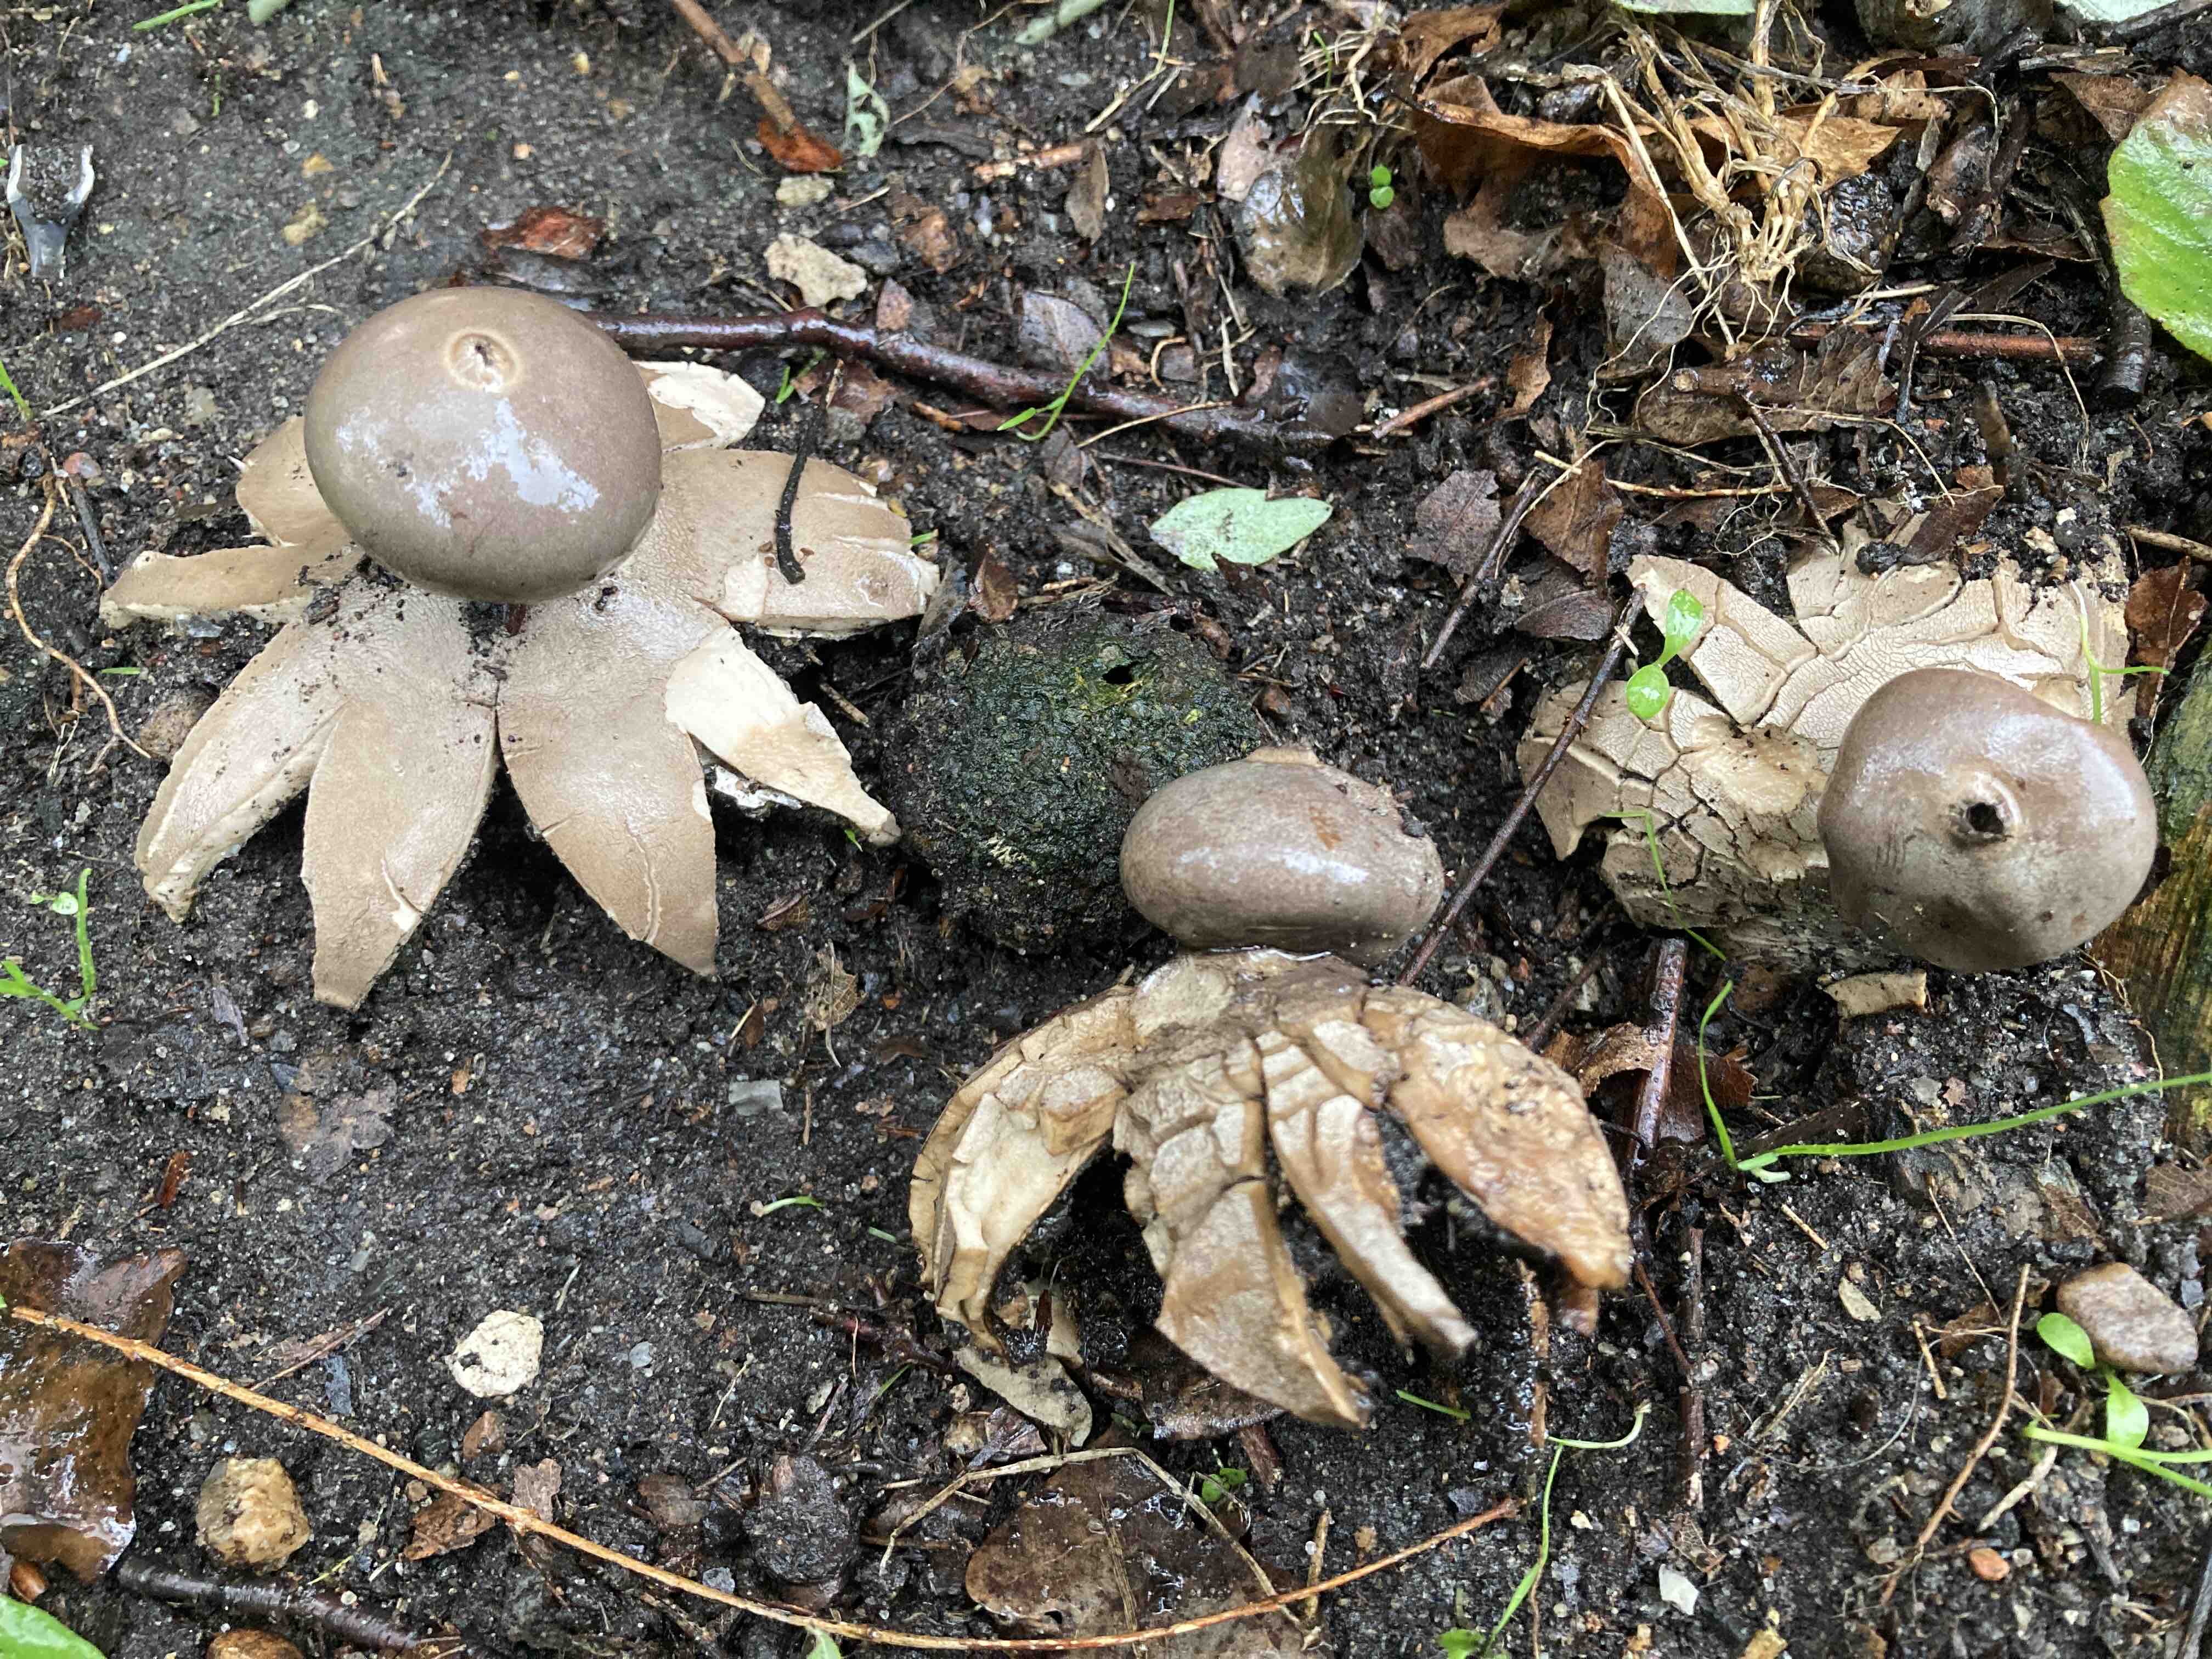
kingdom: Fungi
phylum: Basidiomycota
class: Agaricomycetes
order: Geastrales
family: Geastraceae
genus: Geastrum
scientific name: Geastrum
